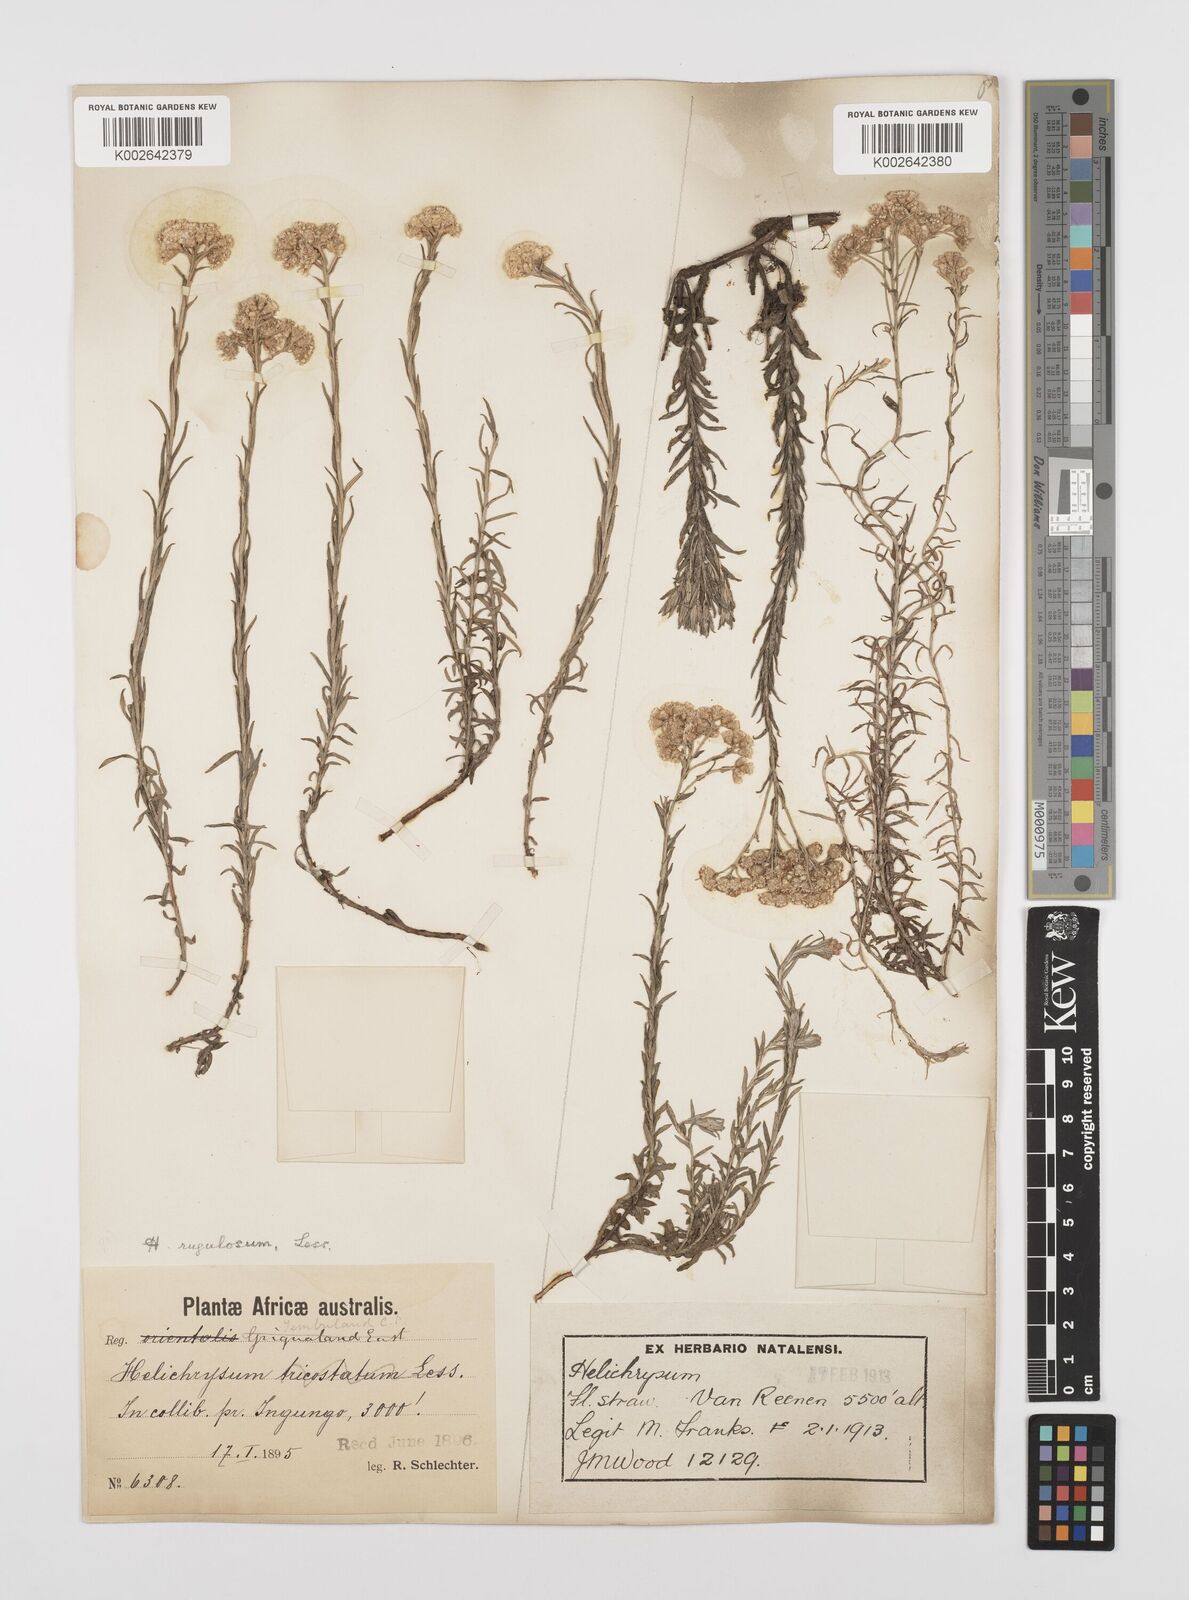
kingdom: Plantae
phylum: Tracheophyta
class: Magnoliopsida
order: Asterales
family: Asteraceae
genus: Helichrysum
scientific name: Helichrysum rugulosum
